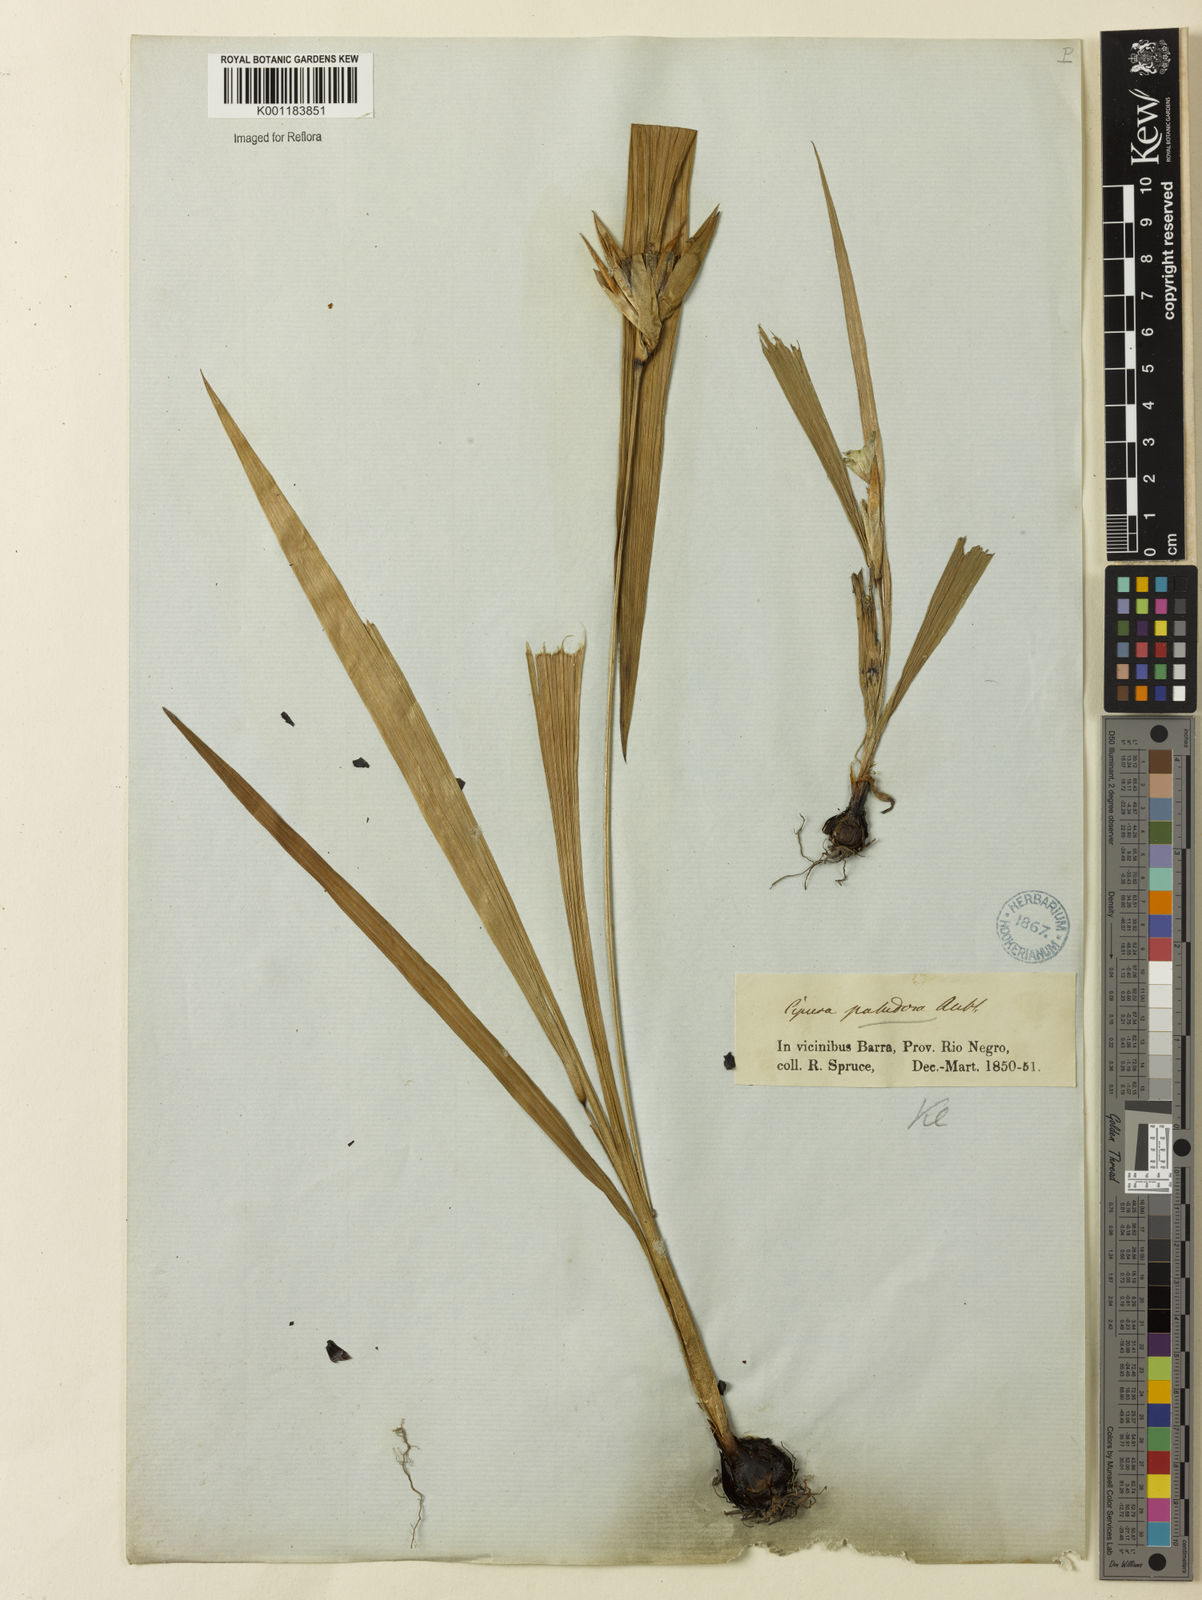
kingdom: Plantae
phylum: Tracheophyta
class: Liliopsida
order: Asparagales
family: Iridaceae
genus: Cipura
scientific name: Cipura paludosa
